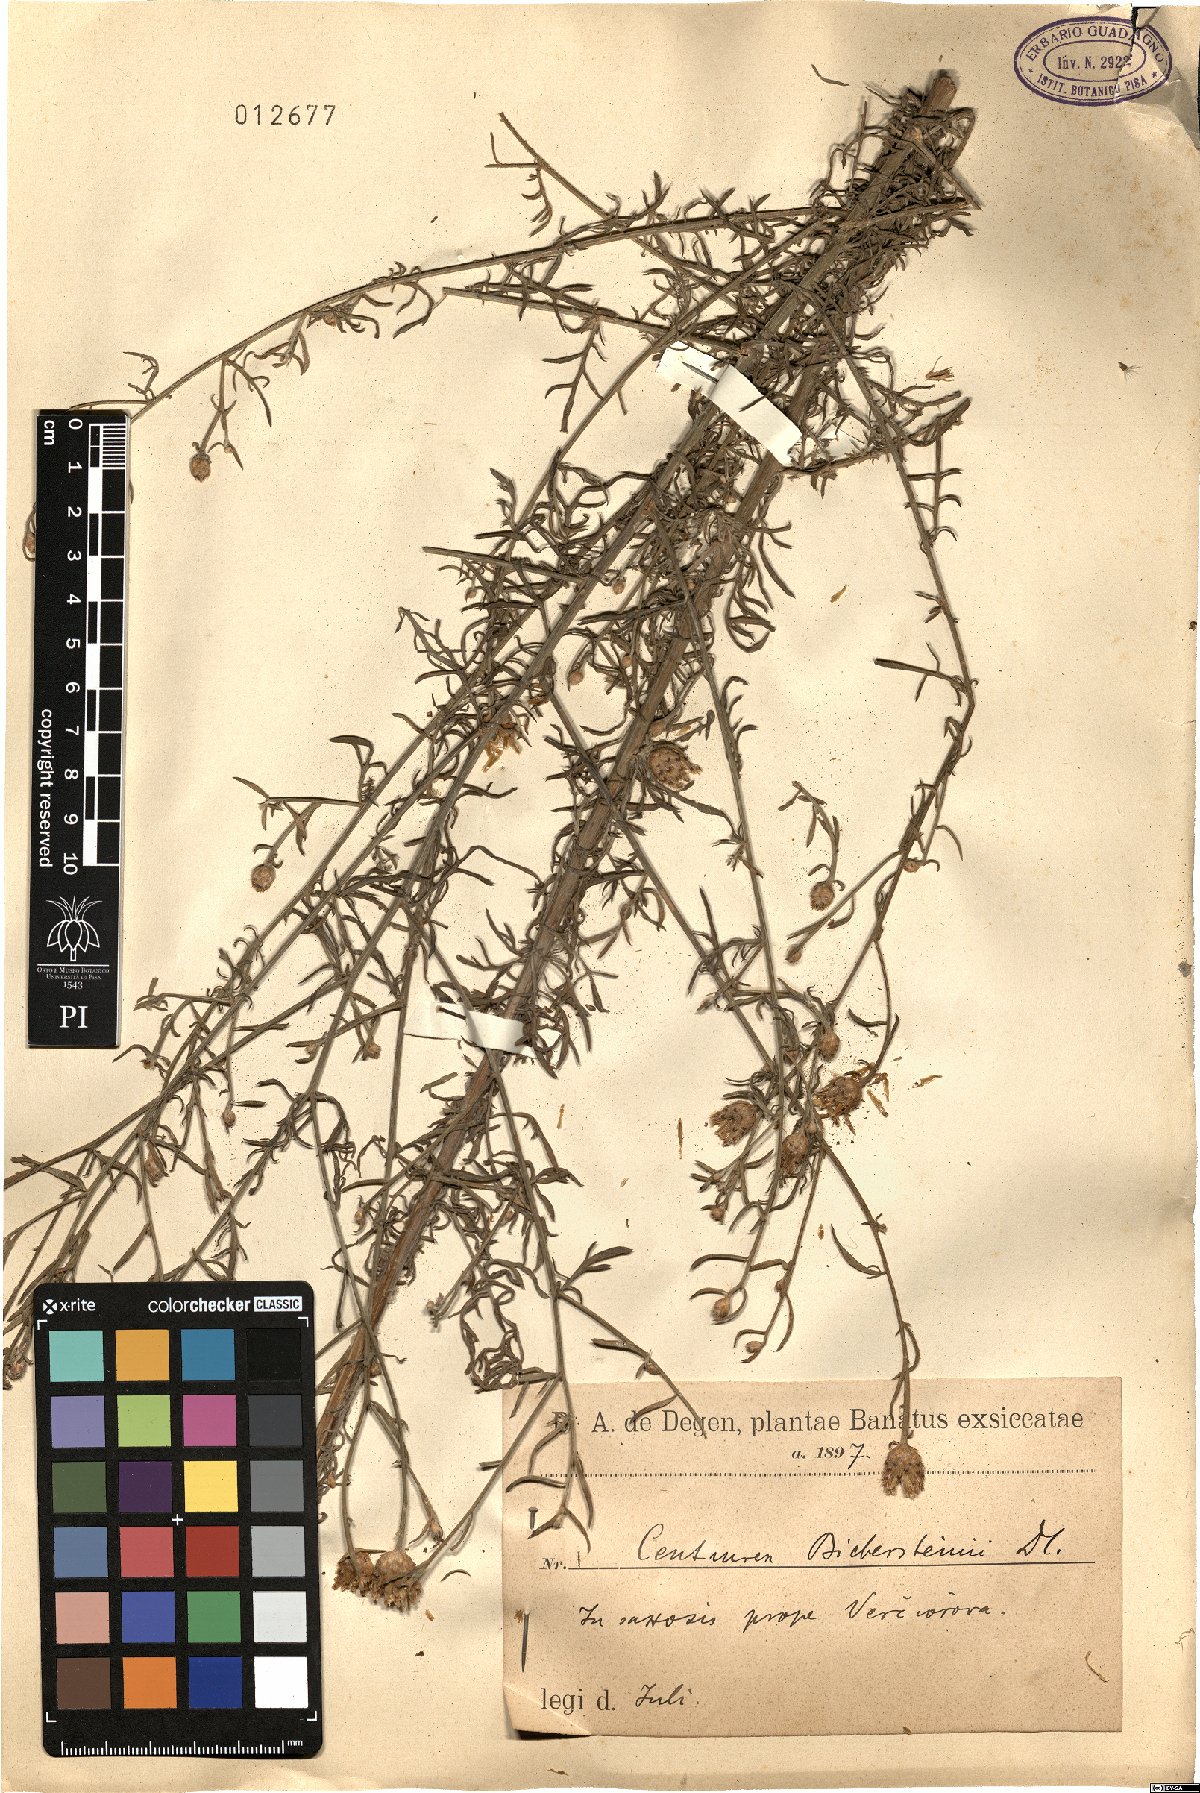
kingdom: Plantae
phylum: Tracheophyta
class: Magnoliopsida
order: Asterales
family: Asteraceae
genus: Centaurea
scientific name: Centaurea stoebe
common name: Spotted knapweed
